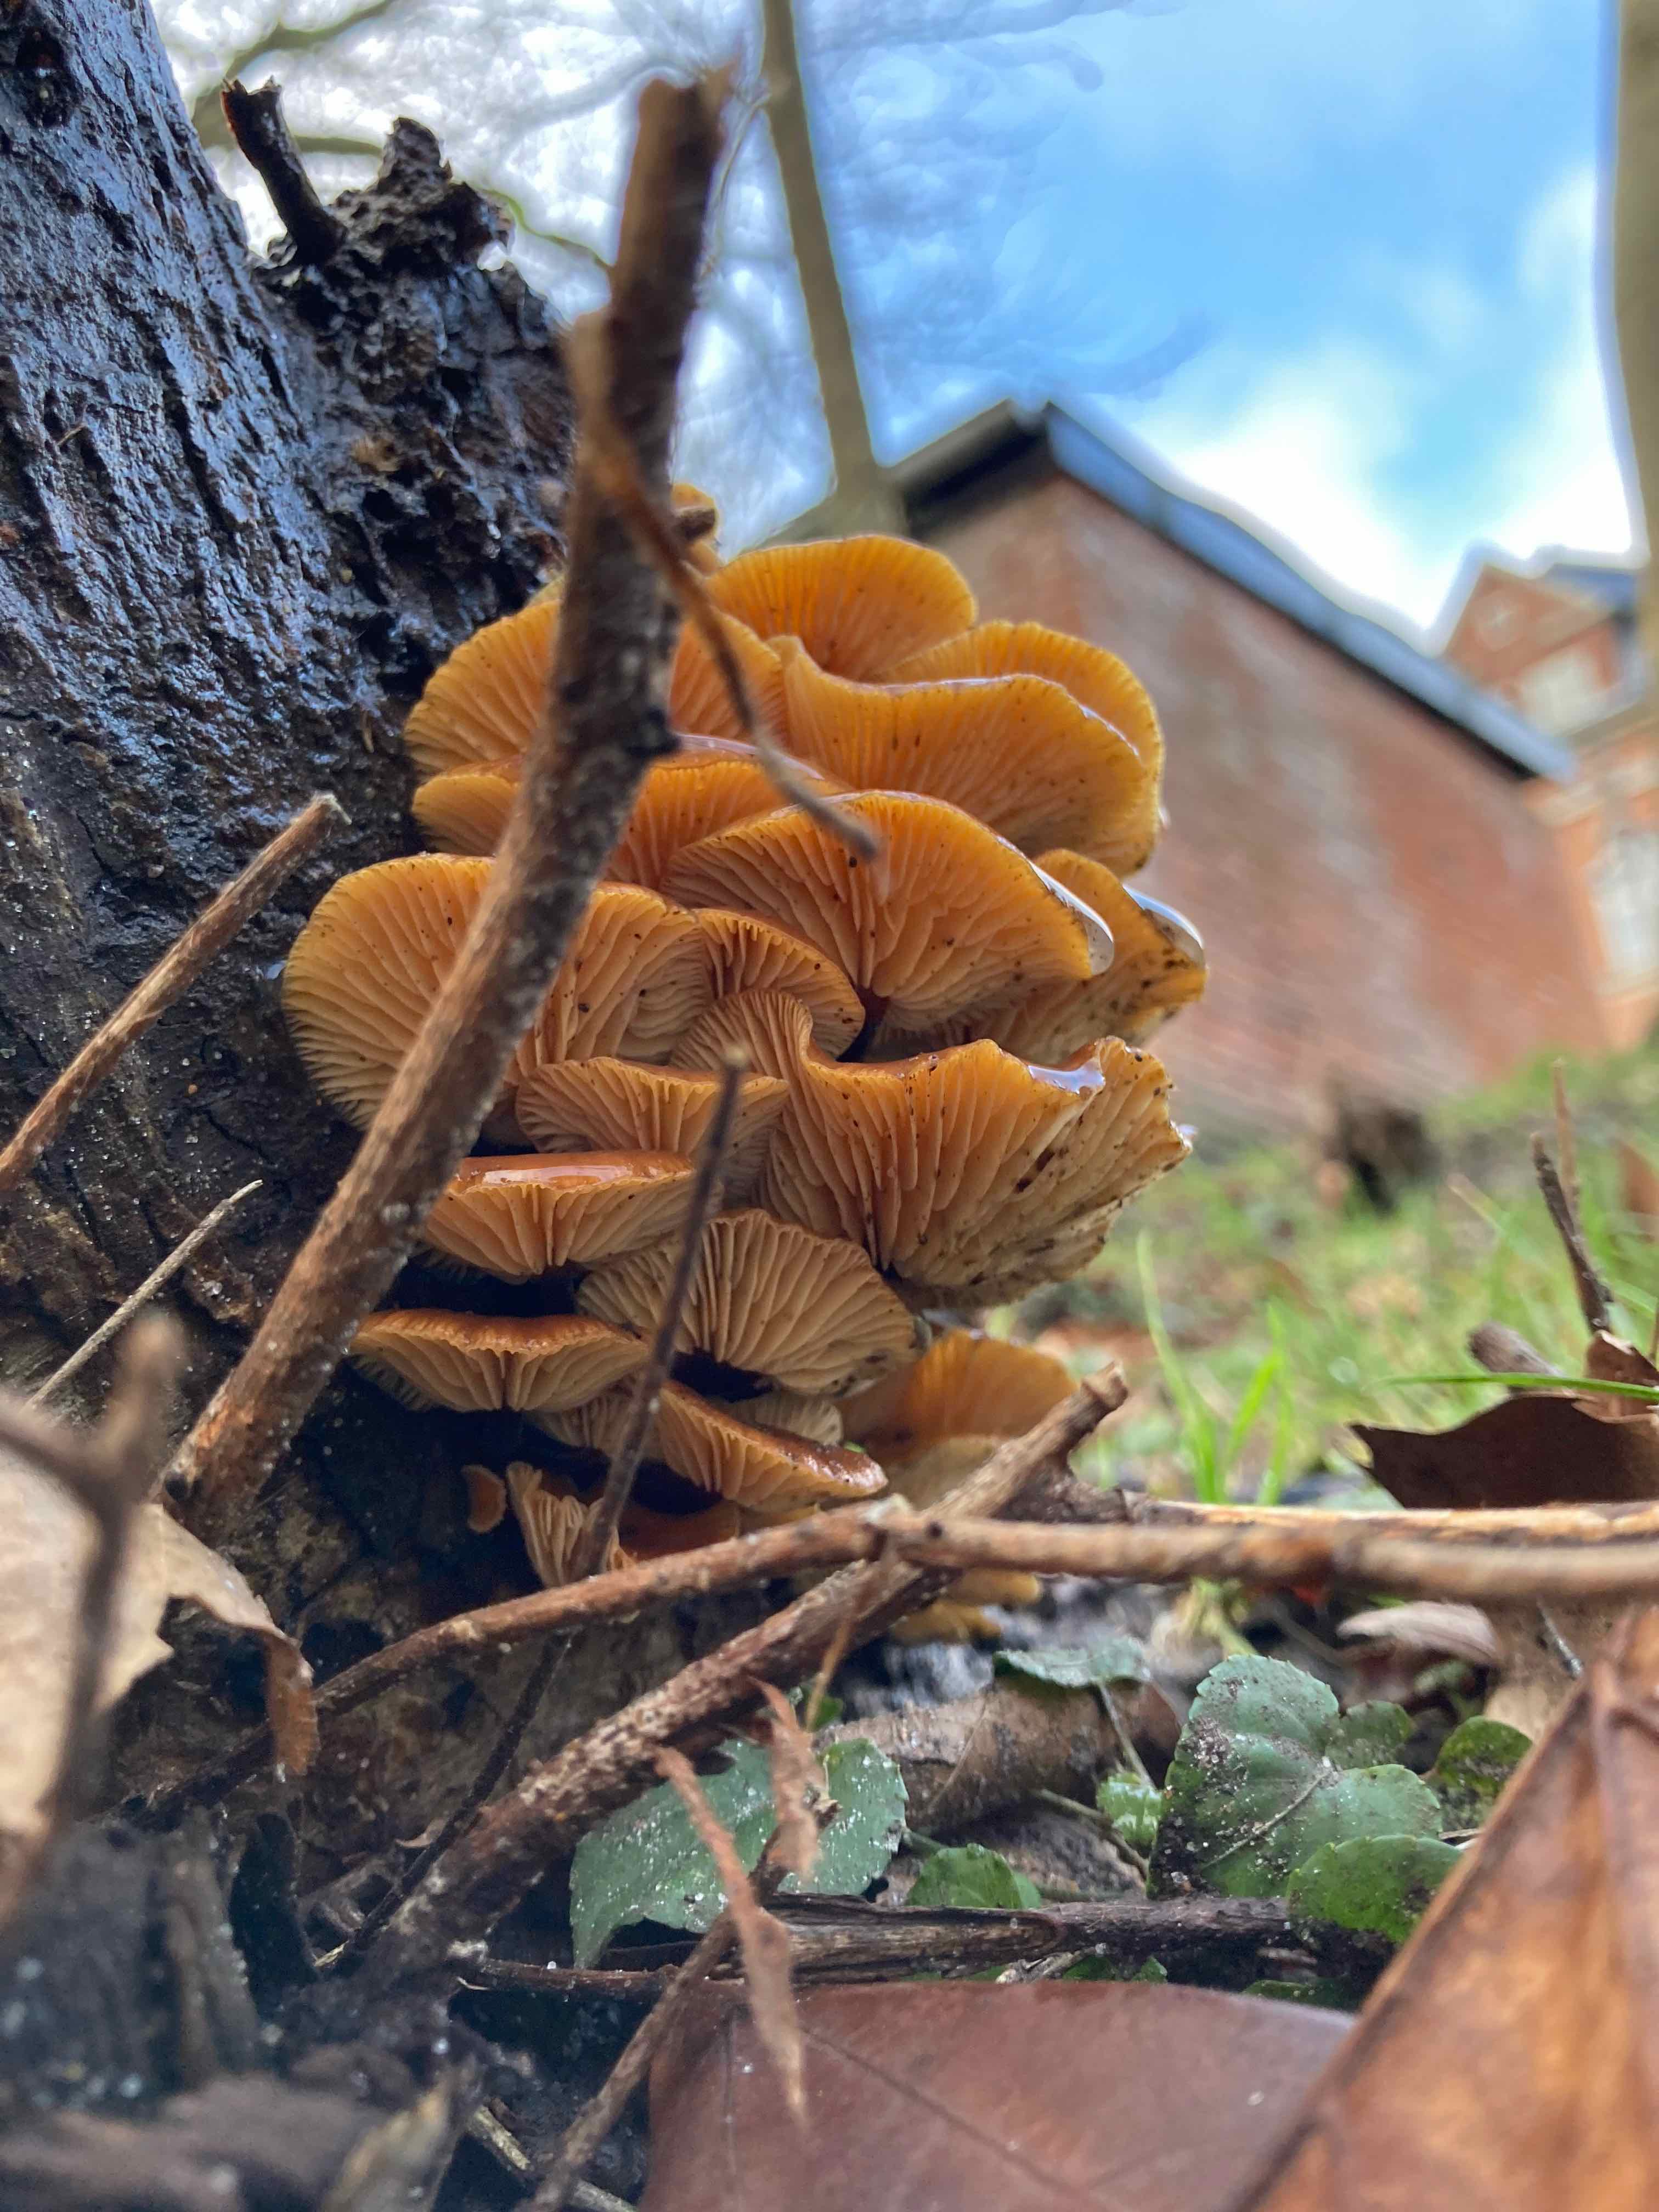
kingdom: Fungi
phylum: Basidiomycota
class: Agaricomycetes
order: Agaricales
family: Physalacriaceae
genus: Flammulina
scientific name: Flammulina
